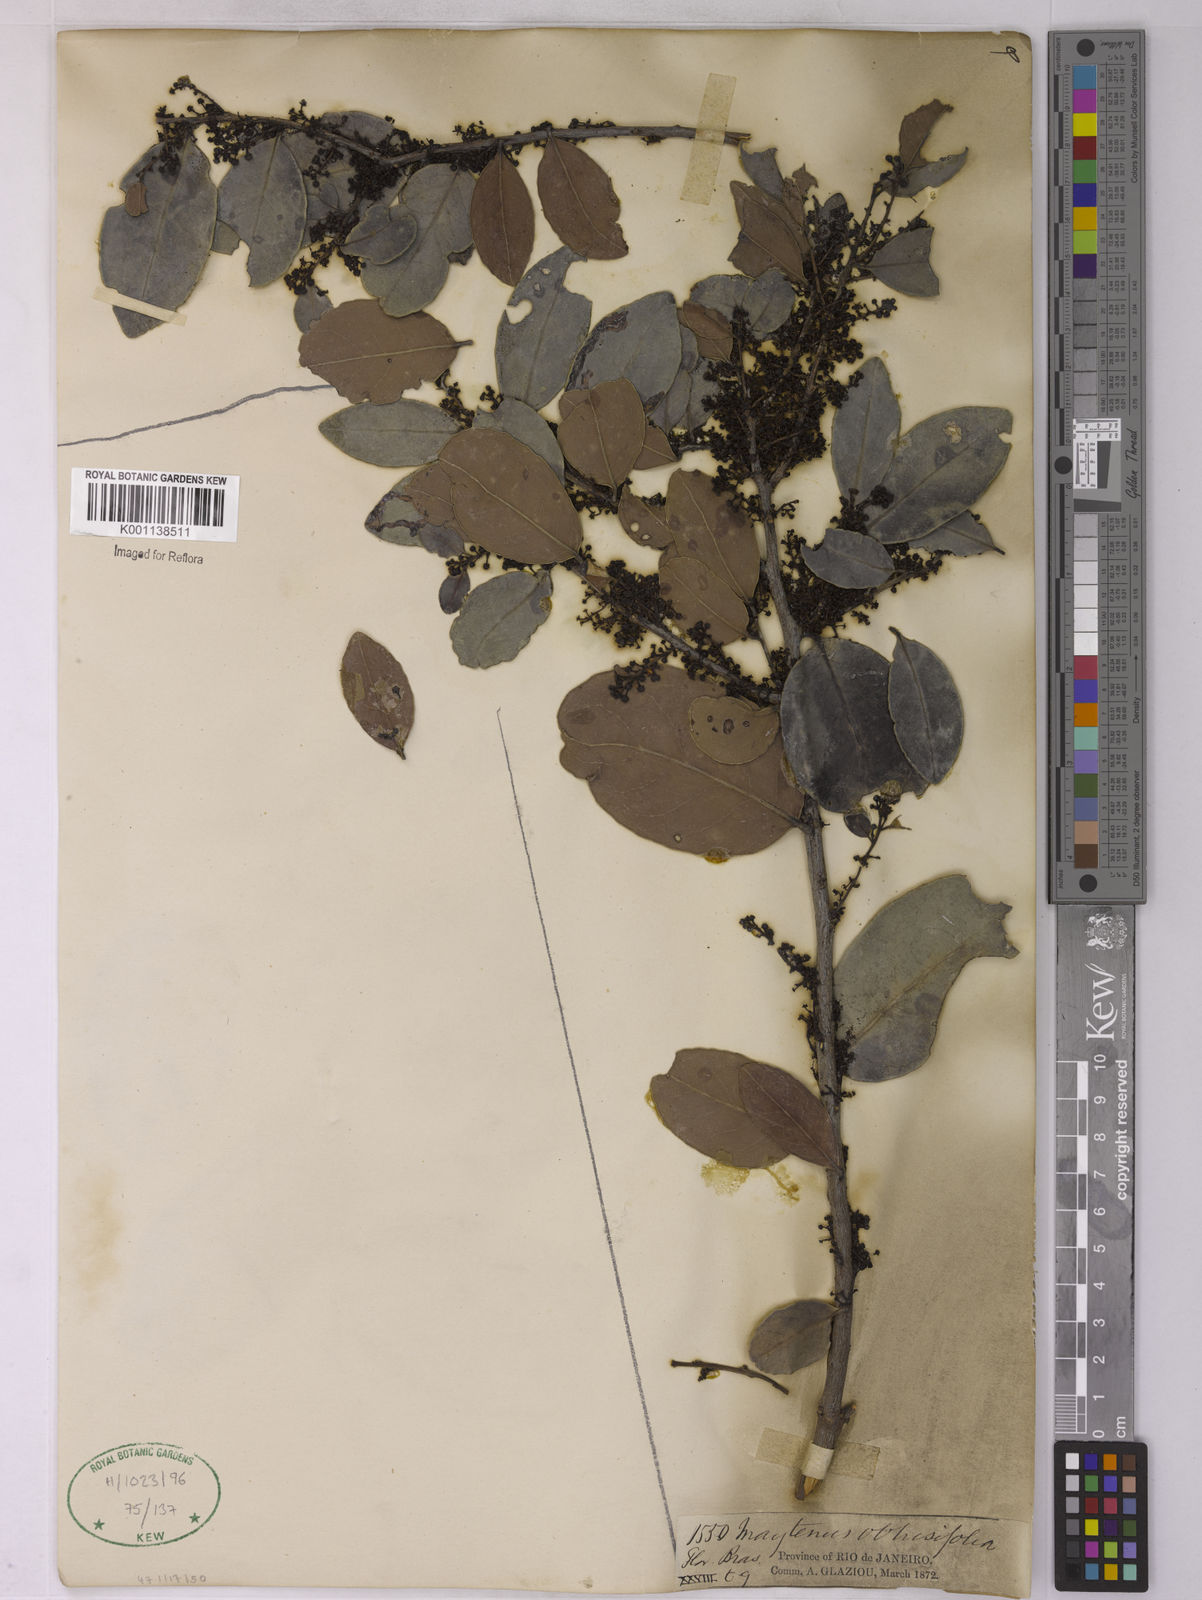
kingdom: Plantae
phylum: Tracheophyta
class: Magnoliopsida
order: Celastrales
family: Celastraceae
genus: Monteverdia
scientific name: Monteverdia obtusifolia
